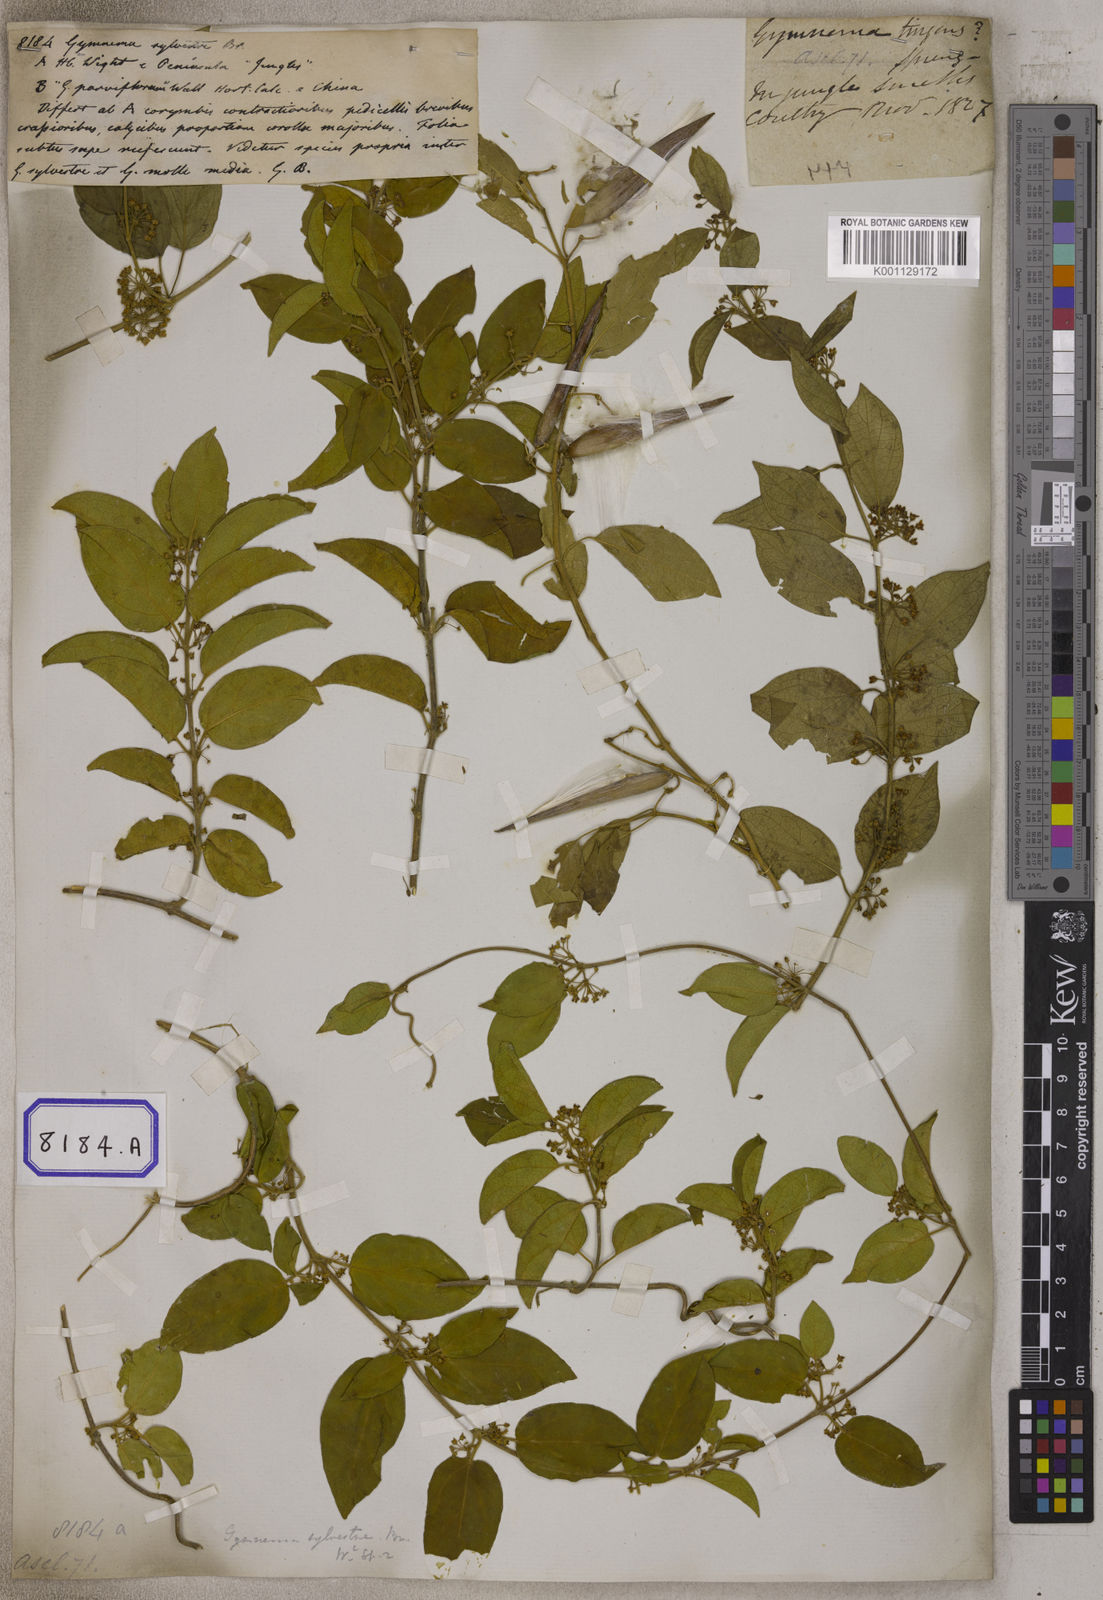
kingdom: Plantae
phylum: Tracheophyta
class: Magnoliopsida
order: Gentianales
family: Apocynaceae
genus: Gymnema
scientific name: Gymnema
